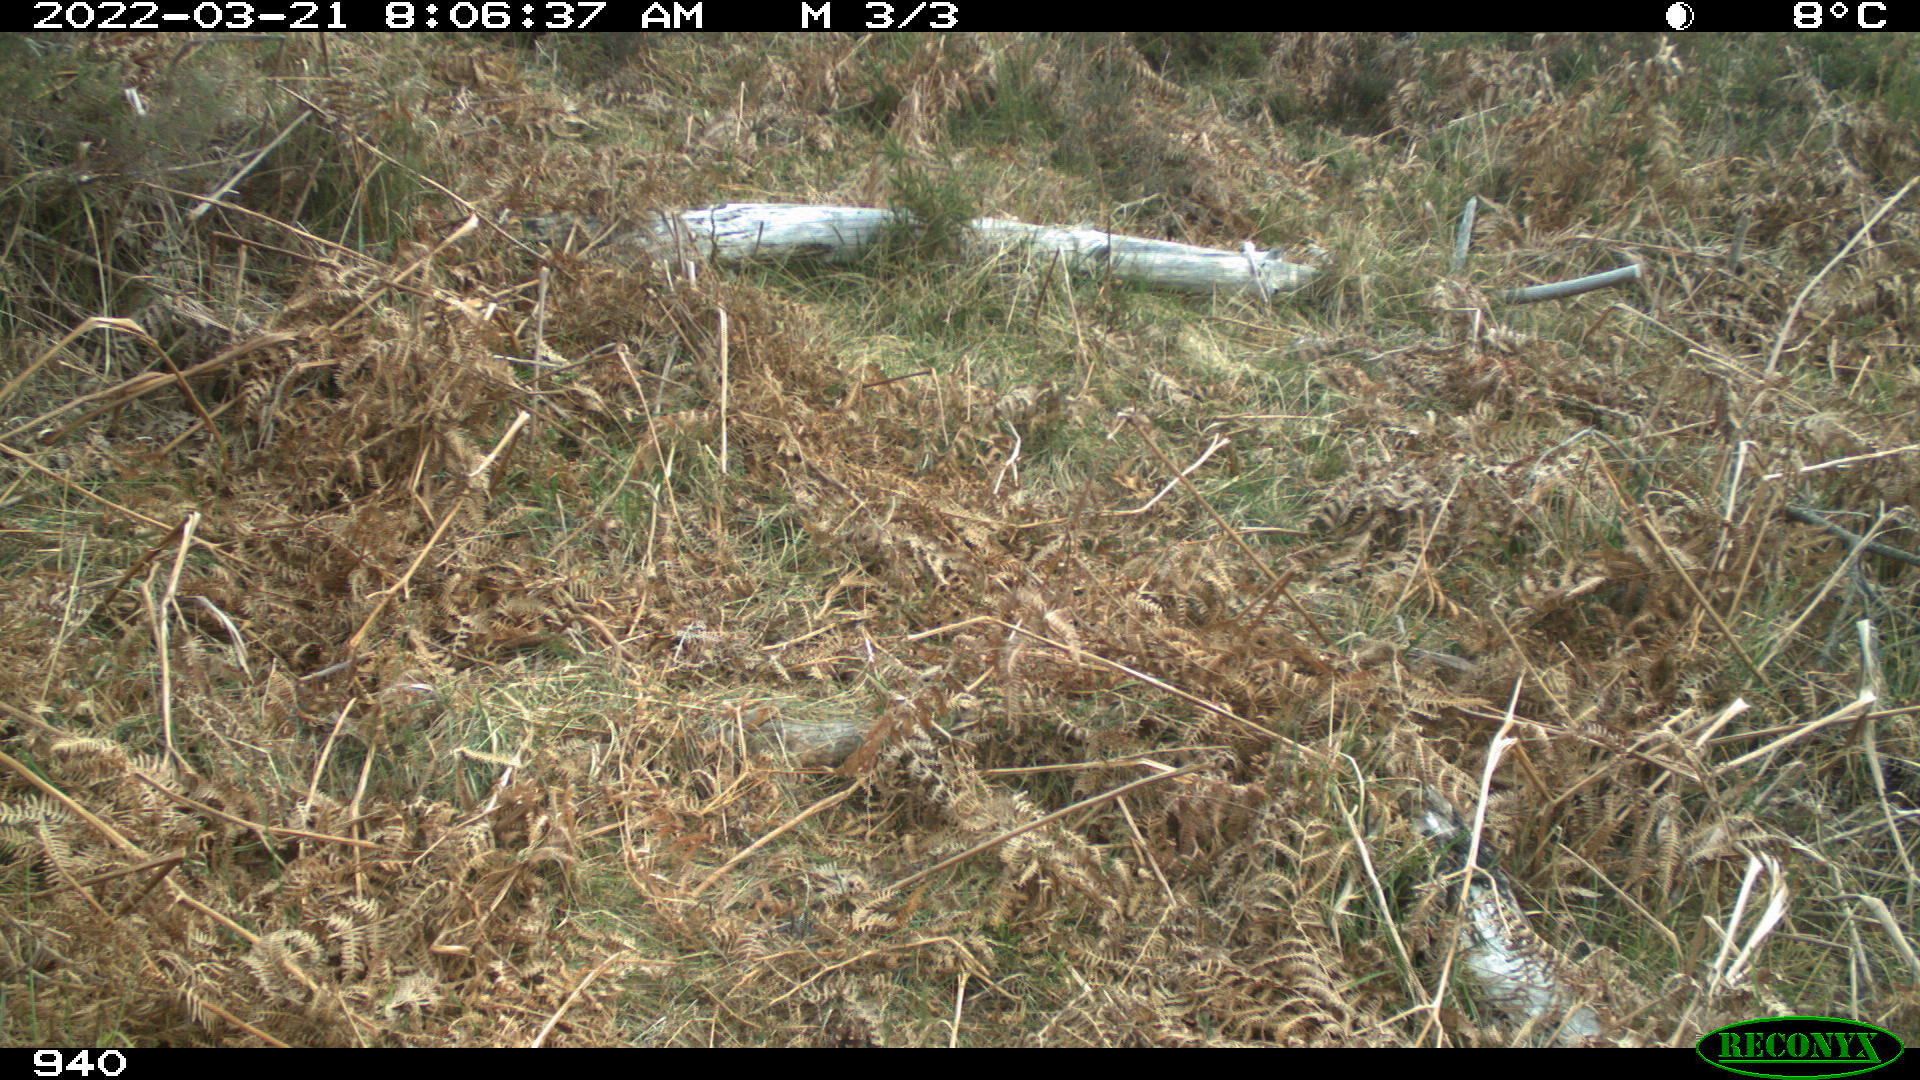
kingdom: Animalia
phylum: Chordata
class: Mammalia
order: Carnivora
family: Canidae
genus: Canis
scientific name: Canis lupus
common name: Gray wolf
